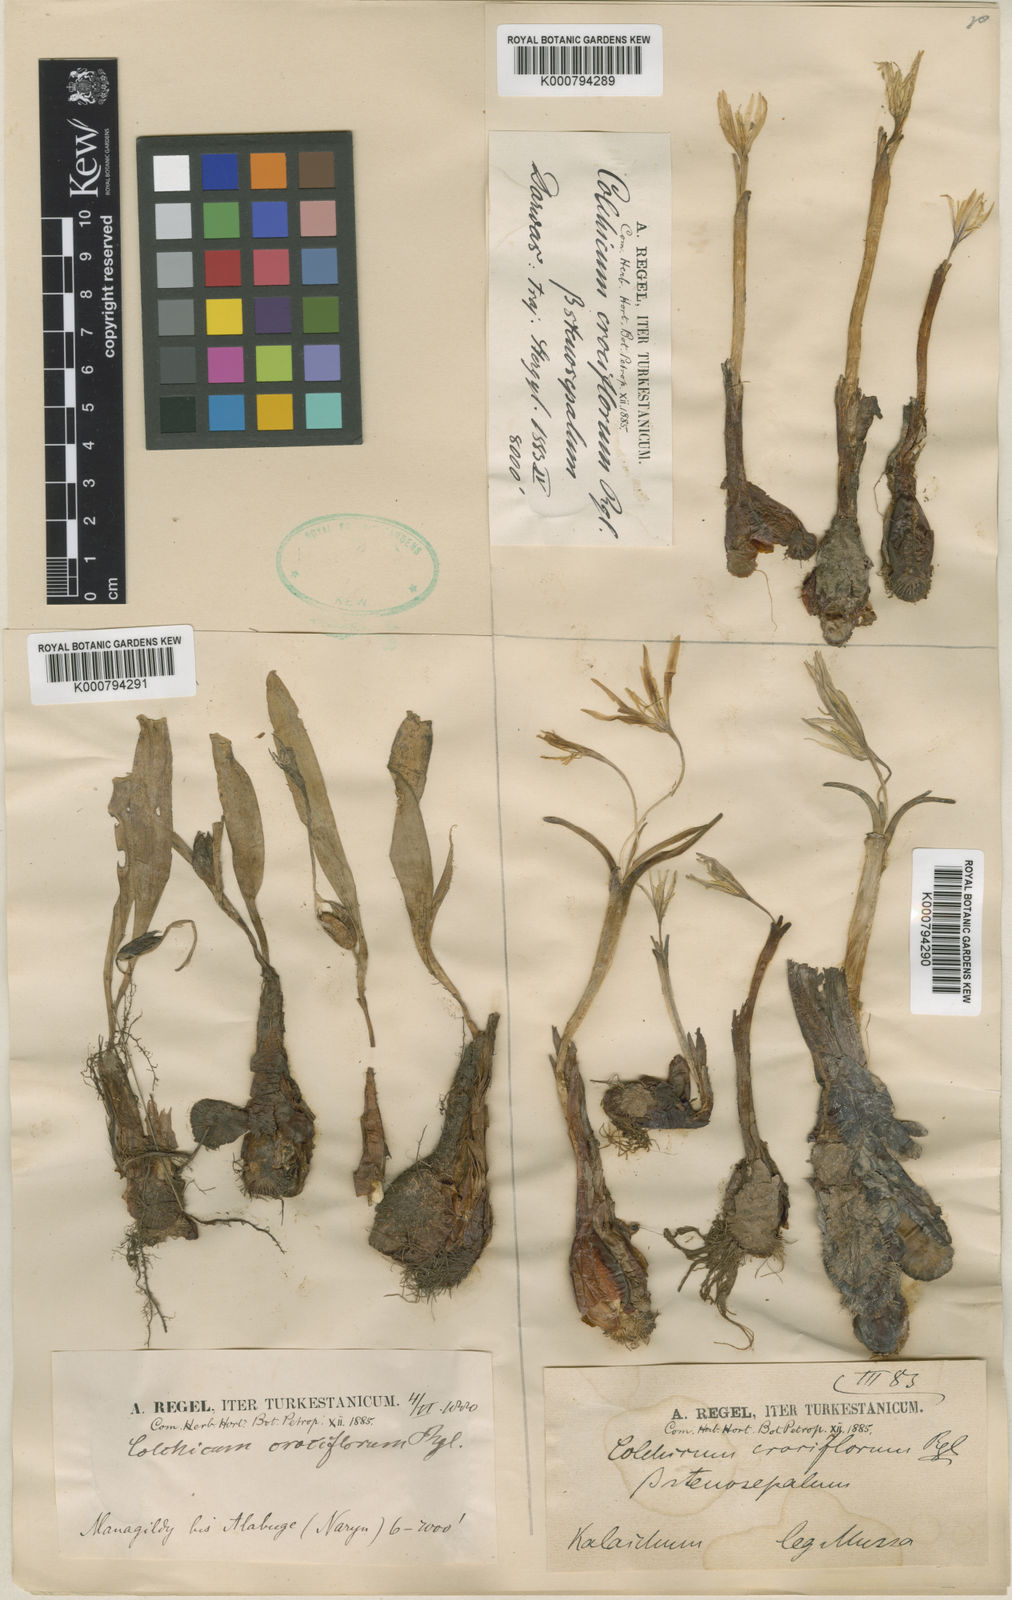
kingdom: Plantae
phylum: Tracheophyta
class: Liliopsida
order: Liliales
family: Colchicaceae
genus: Colchicum
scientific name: Colchicum kesselringii
